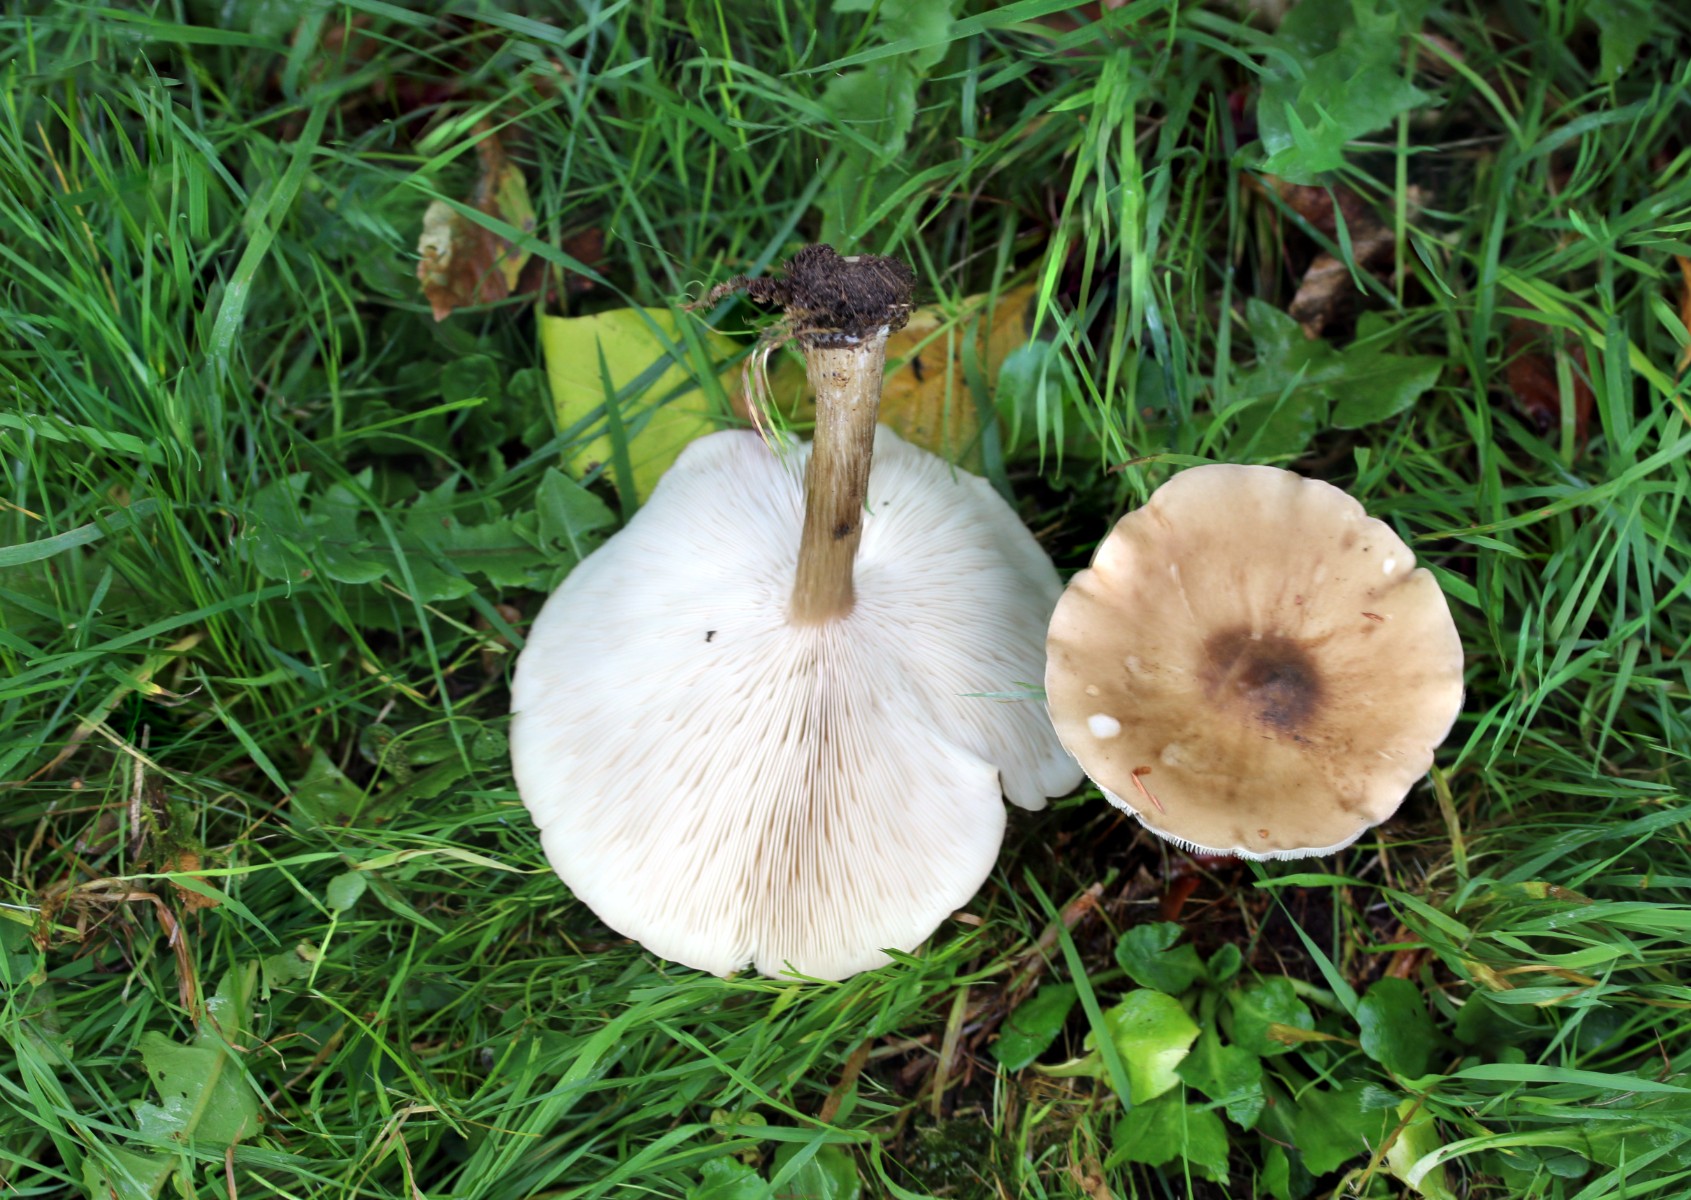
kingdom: Fungi
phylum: Basidiomycota
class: Agaricomycetes
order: Agaricales
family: Tricholomataceae
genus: Melanoleuca
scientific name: Melanoleuca grammopodia
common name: stribestokket munkehat
